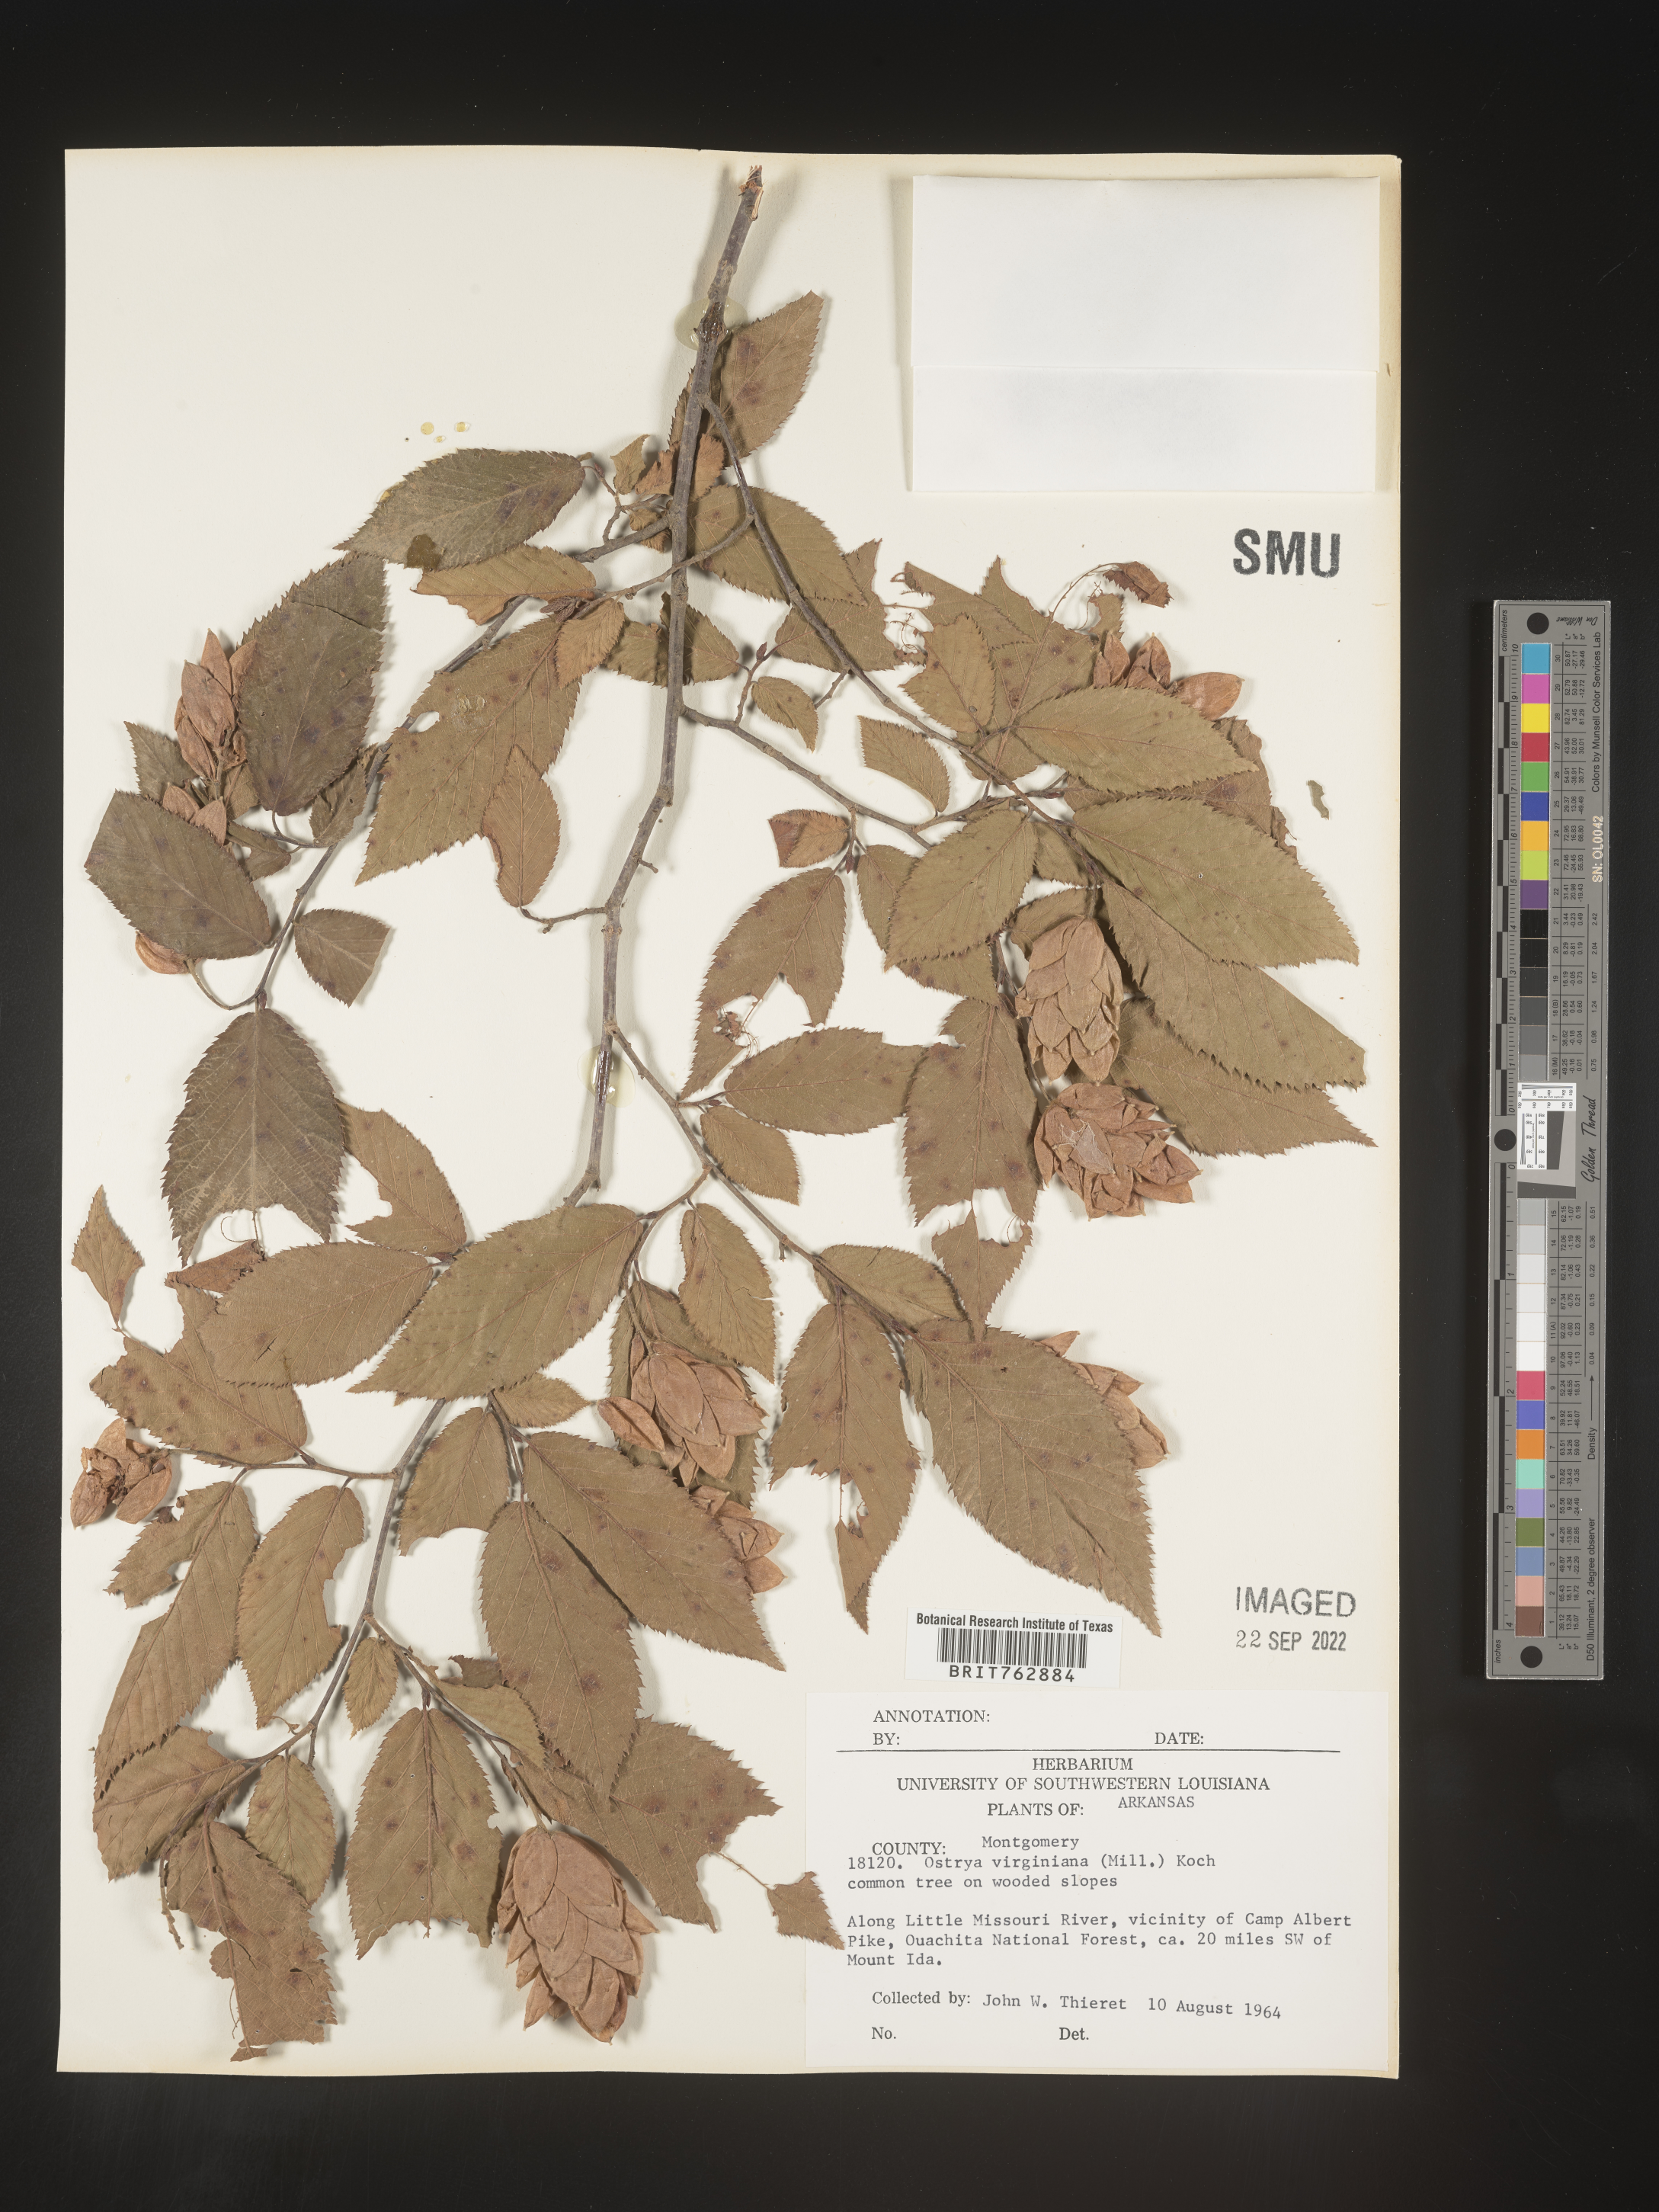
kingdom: Plantae
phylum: Tracheophyta
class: Magnoliopsida
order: Fagales
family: Betulaceae
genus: Ostrya
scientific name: Ostrya virginiana
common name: Ironwood
